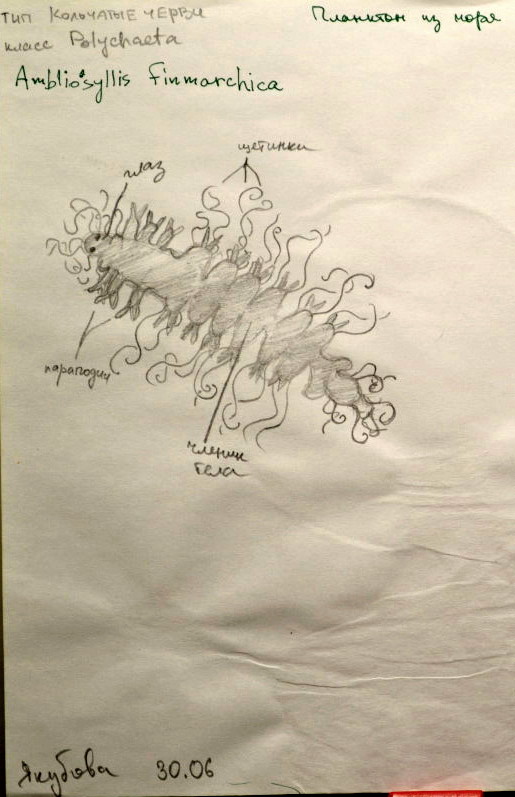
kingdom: Animalia
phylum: Annelida
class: Polychaeta
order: Phyllodocida
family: Syllidae
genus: Proceraea
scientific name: Proceraea prismatica
